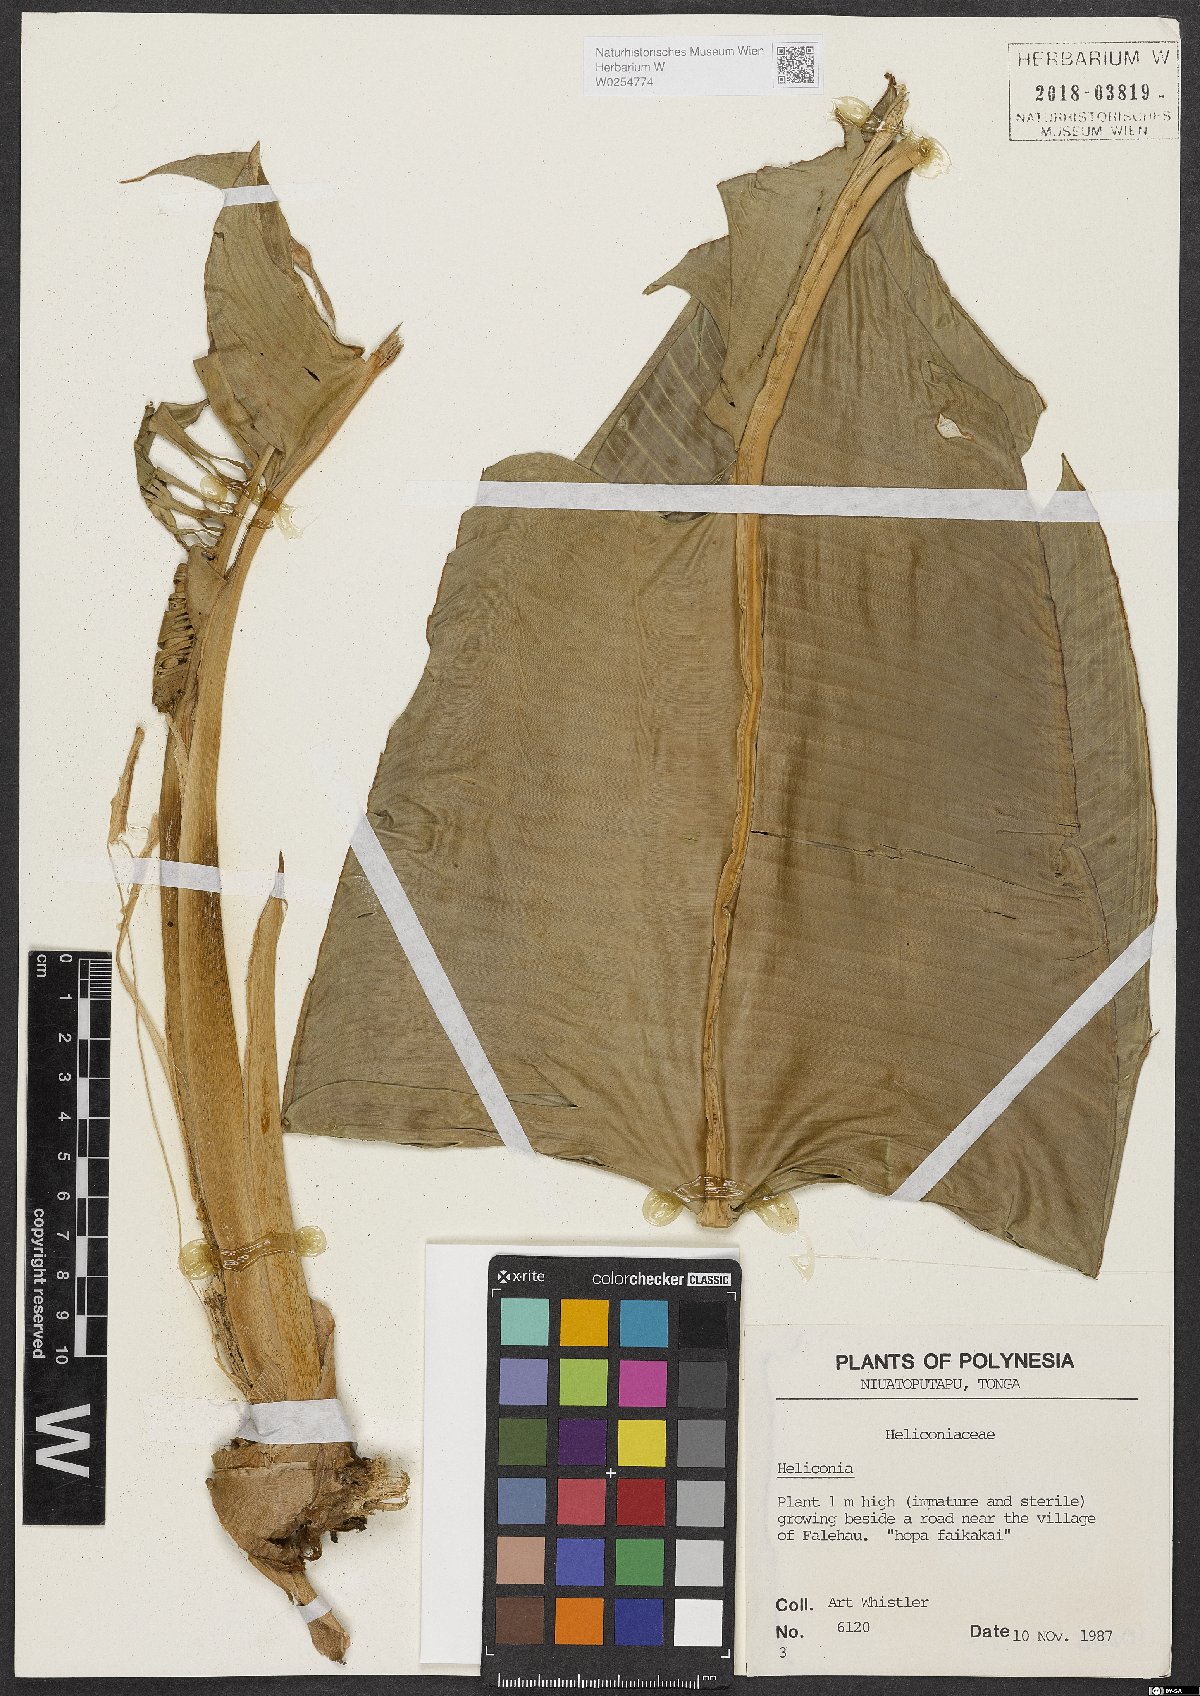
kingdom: Plantae
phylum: Tracheophyta
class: Liliopsida
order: Zingiberales
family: Heliconiaceae
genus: Heliconia
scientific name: Heliconia
